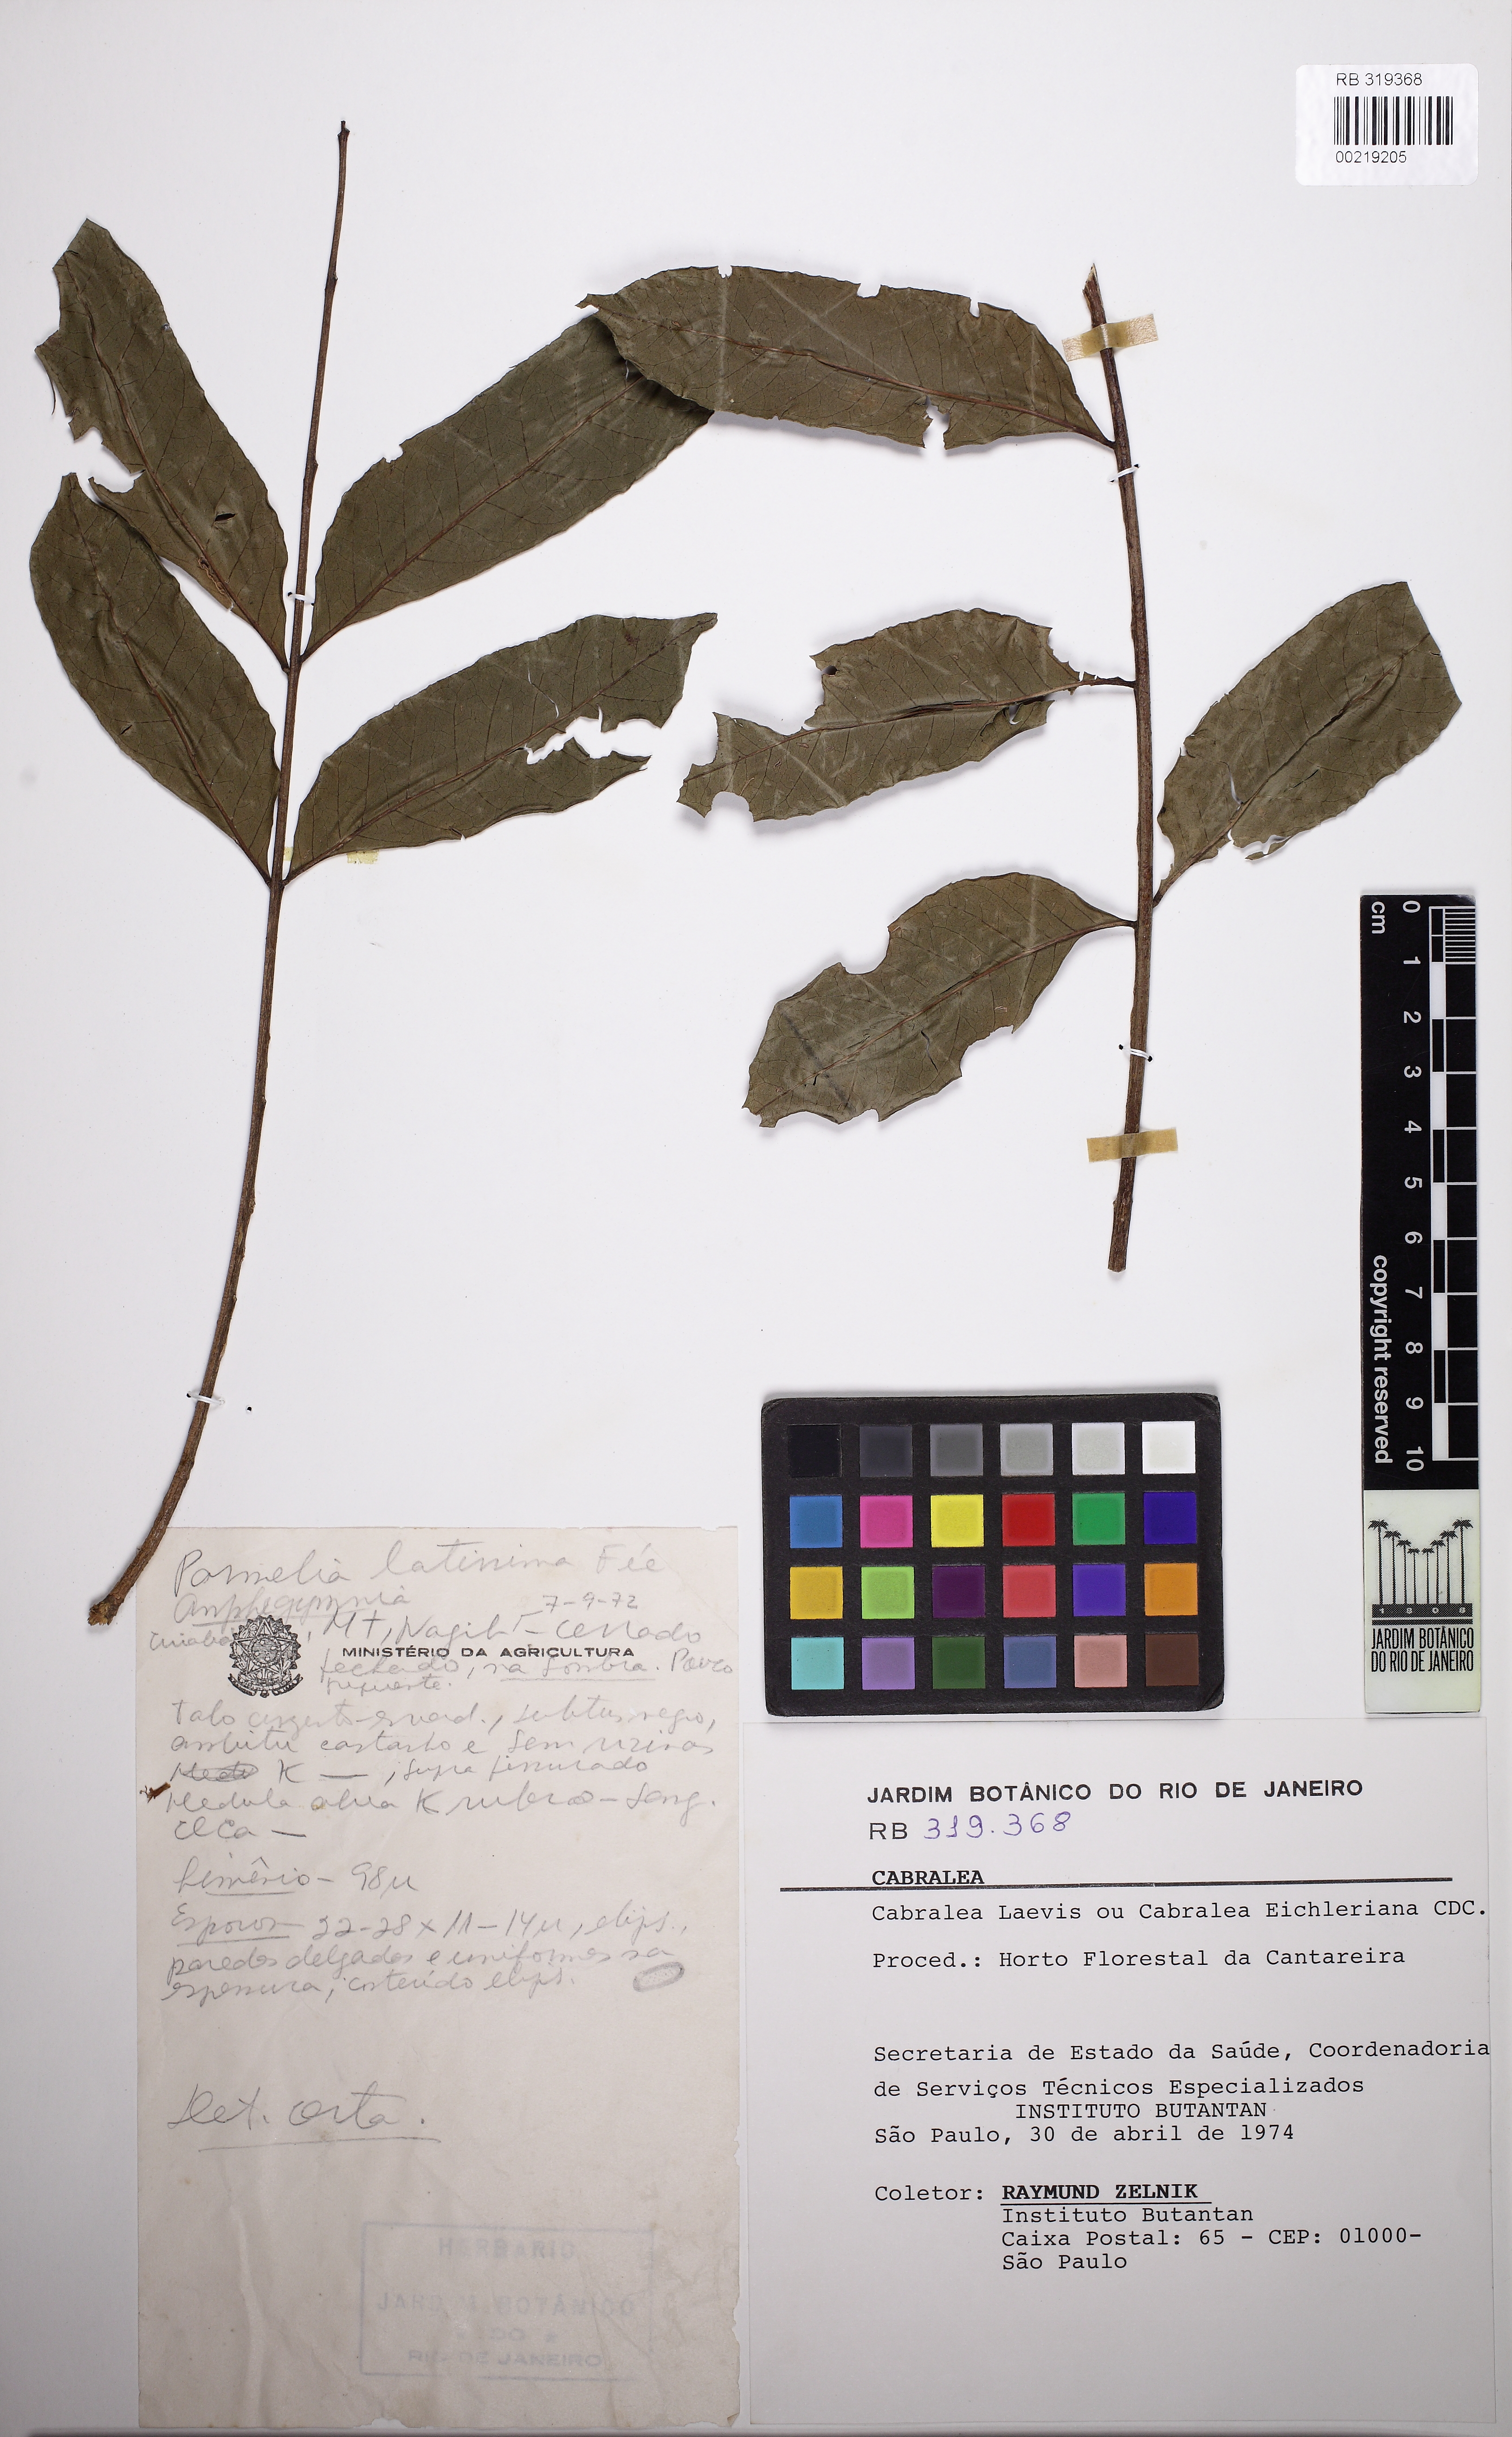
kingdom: Plantae
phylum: Tracheophyta
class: Magnoliopsida
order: Sapindales
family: Meliaceae
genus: Cabralea
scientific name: Cabralea canjerana
